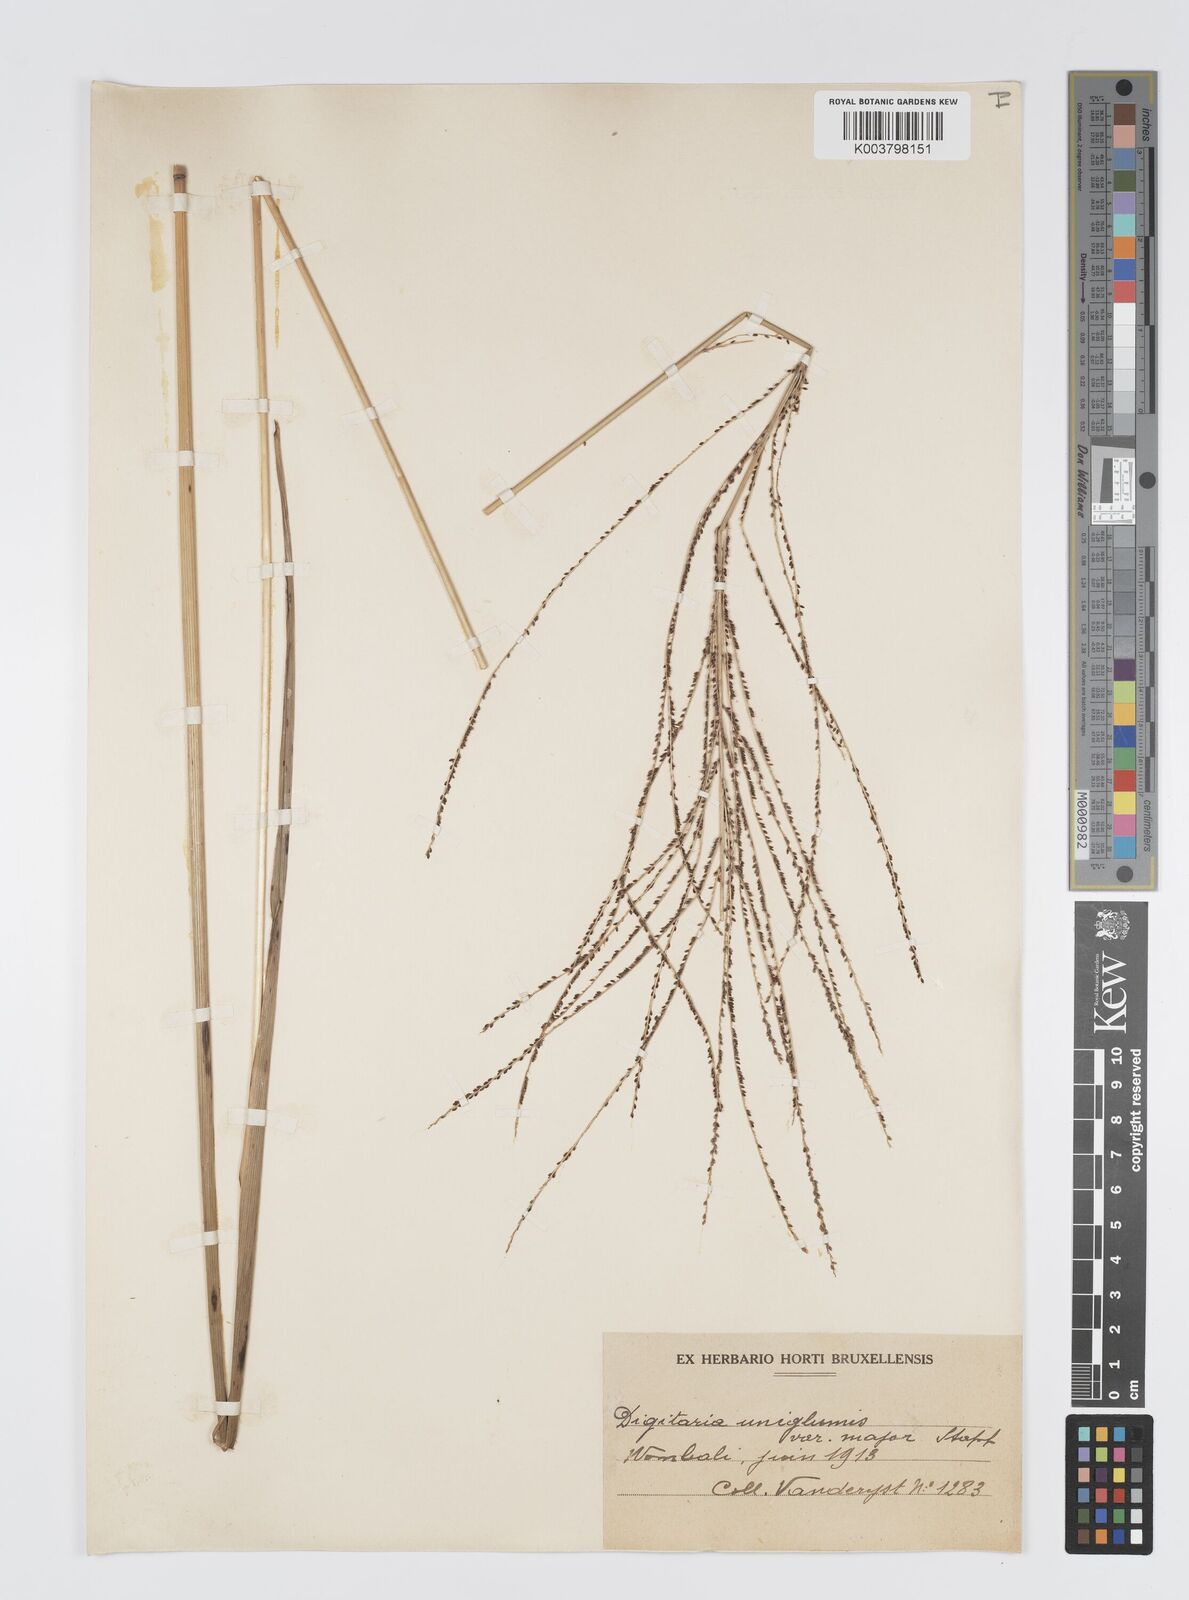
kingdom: Plantae
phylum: Tracheophyta
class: Liliopsida
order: Poales
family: Poaceae
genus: Digitaria
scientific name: Digitaria diagonalis
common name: Brown-seed finger grass
